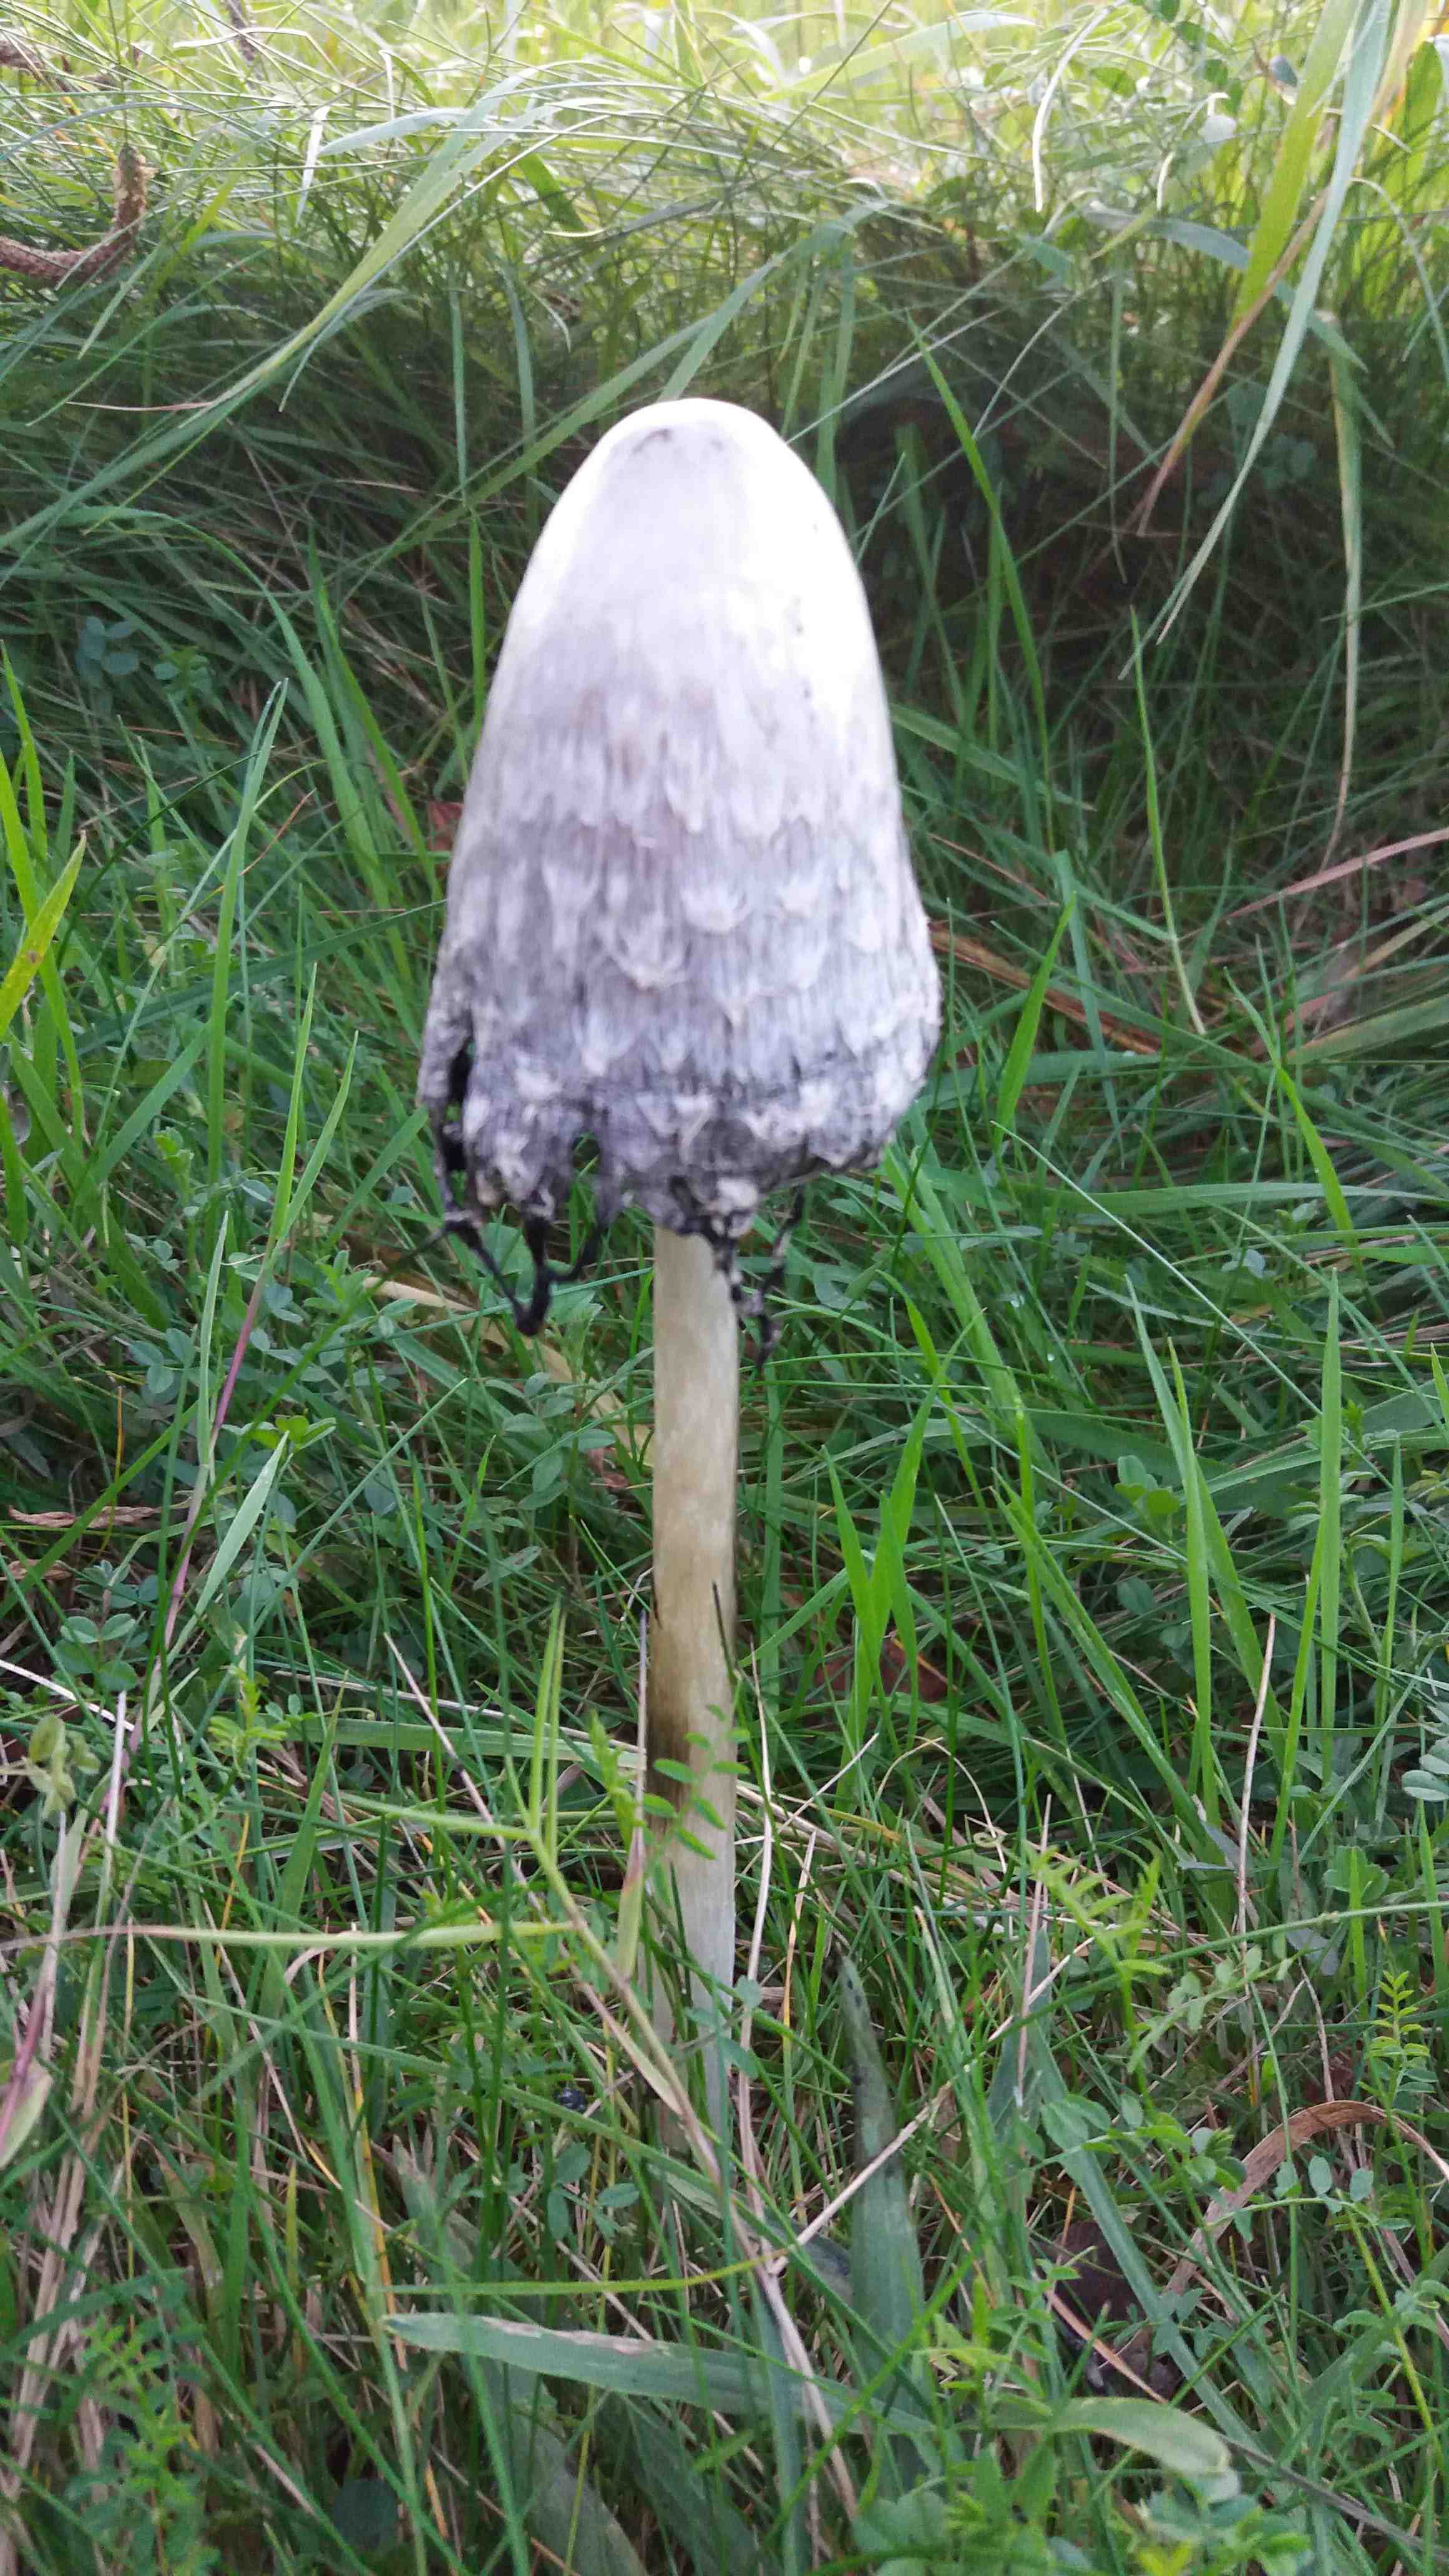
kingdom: Fungi
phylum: Basidiomycota
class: Agaricomycetes
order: Agaricales
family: Agaricaceae
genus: Coprinus
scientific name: Coprinus comatus
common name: stor parykhat
